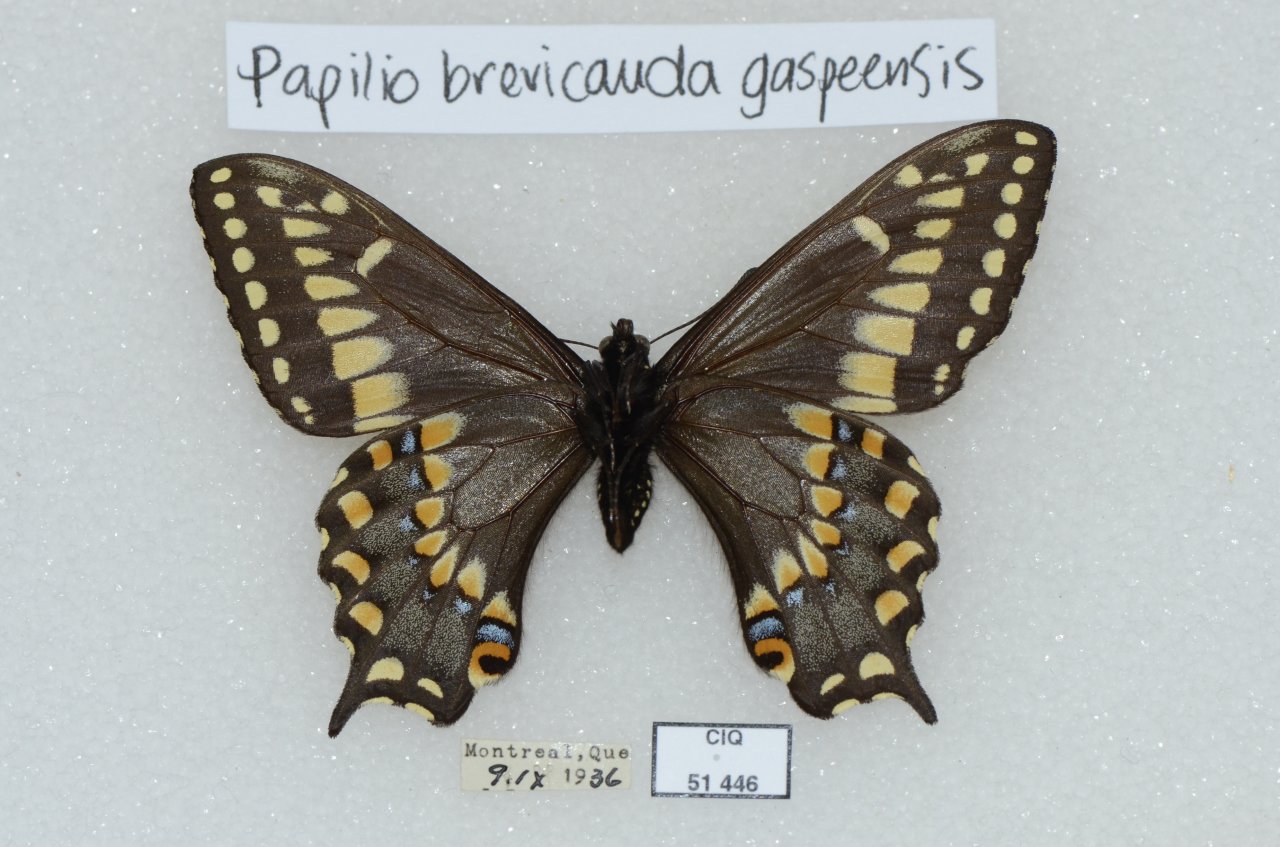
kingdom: Animalia
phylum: Arthropoda
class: Insecta
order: Lepidoptera
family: Papilionidae
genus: Papilio
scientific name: Papilio brevicauda
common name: Short-tailed Swallowtail
